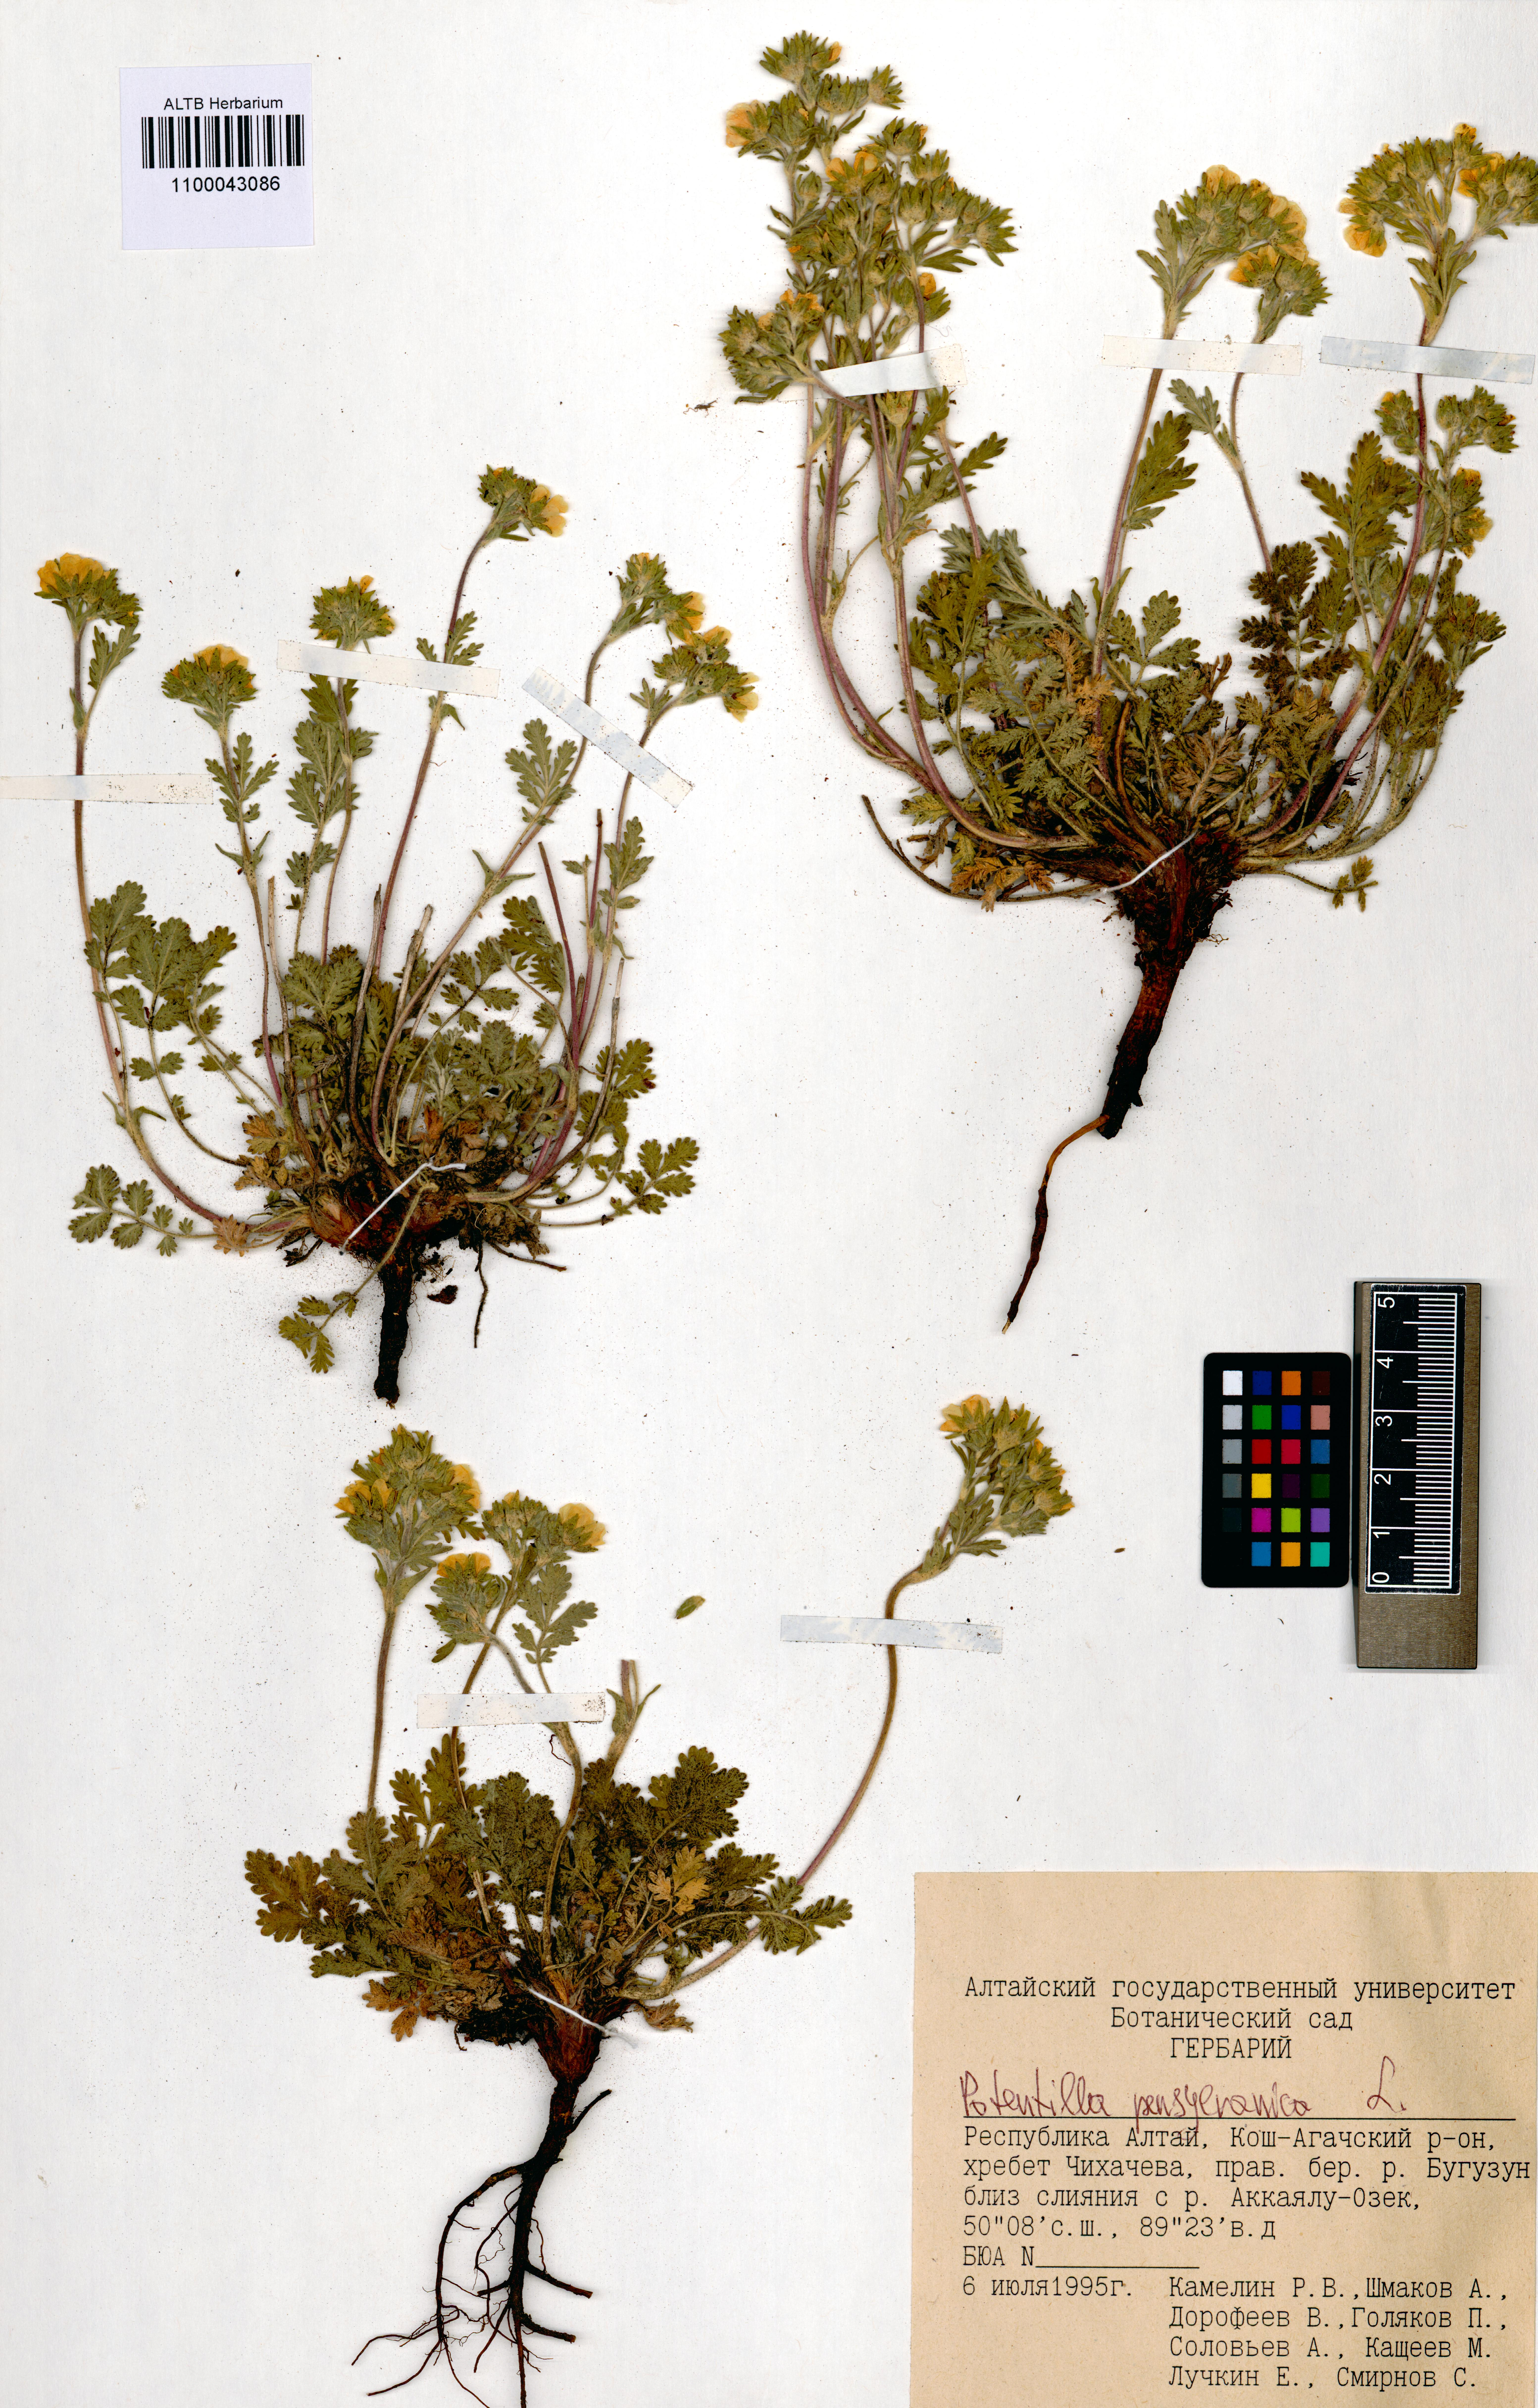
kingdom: Plantae
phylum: Tracheophyta
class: Magnoliopsida
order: Rosales
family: Rosaceae
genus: Potentilla
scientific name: Potentilla pensylvanica
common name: Pennsylvania cinquefoil
